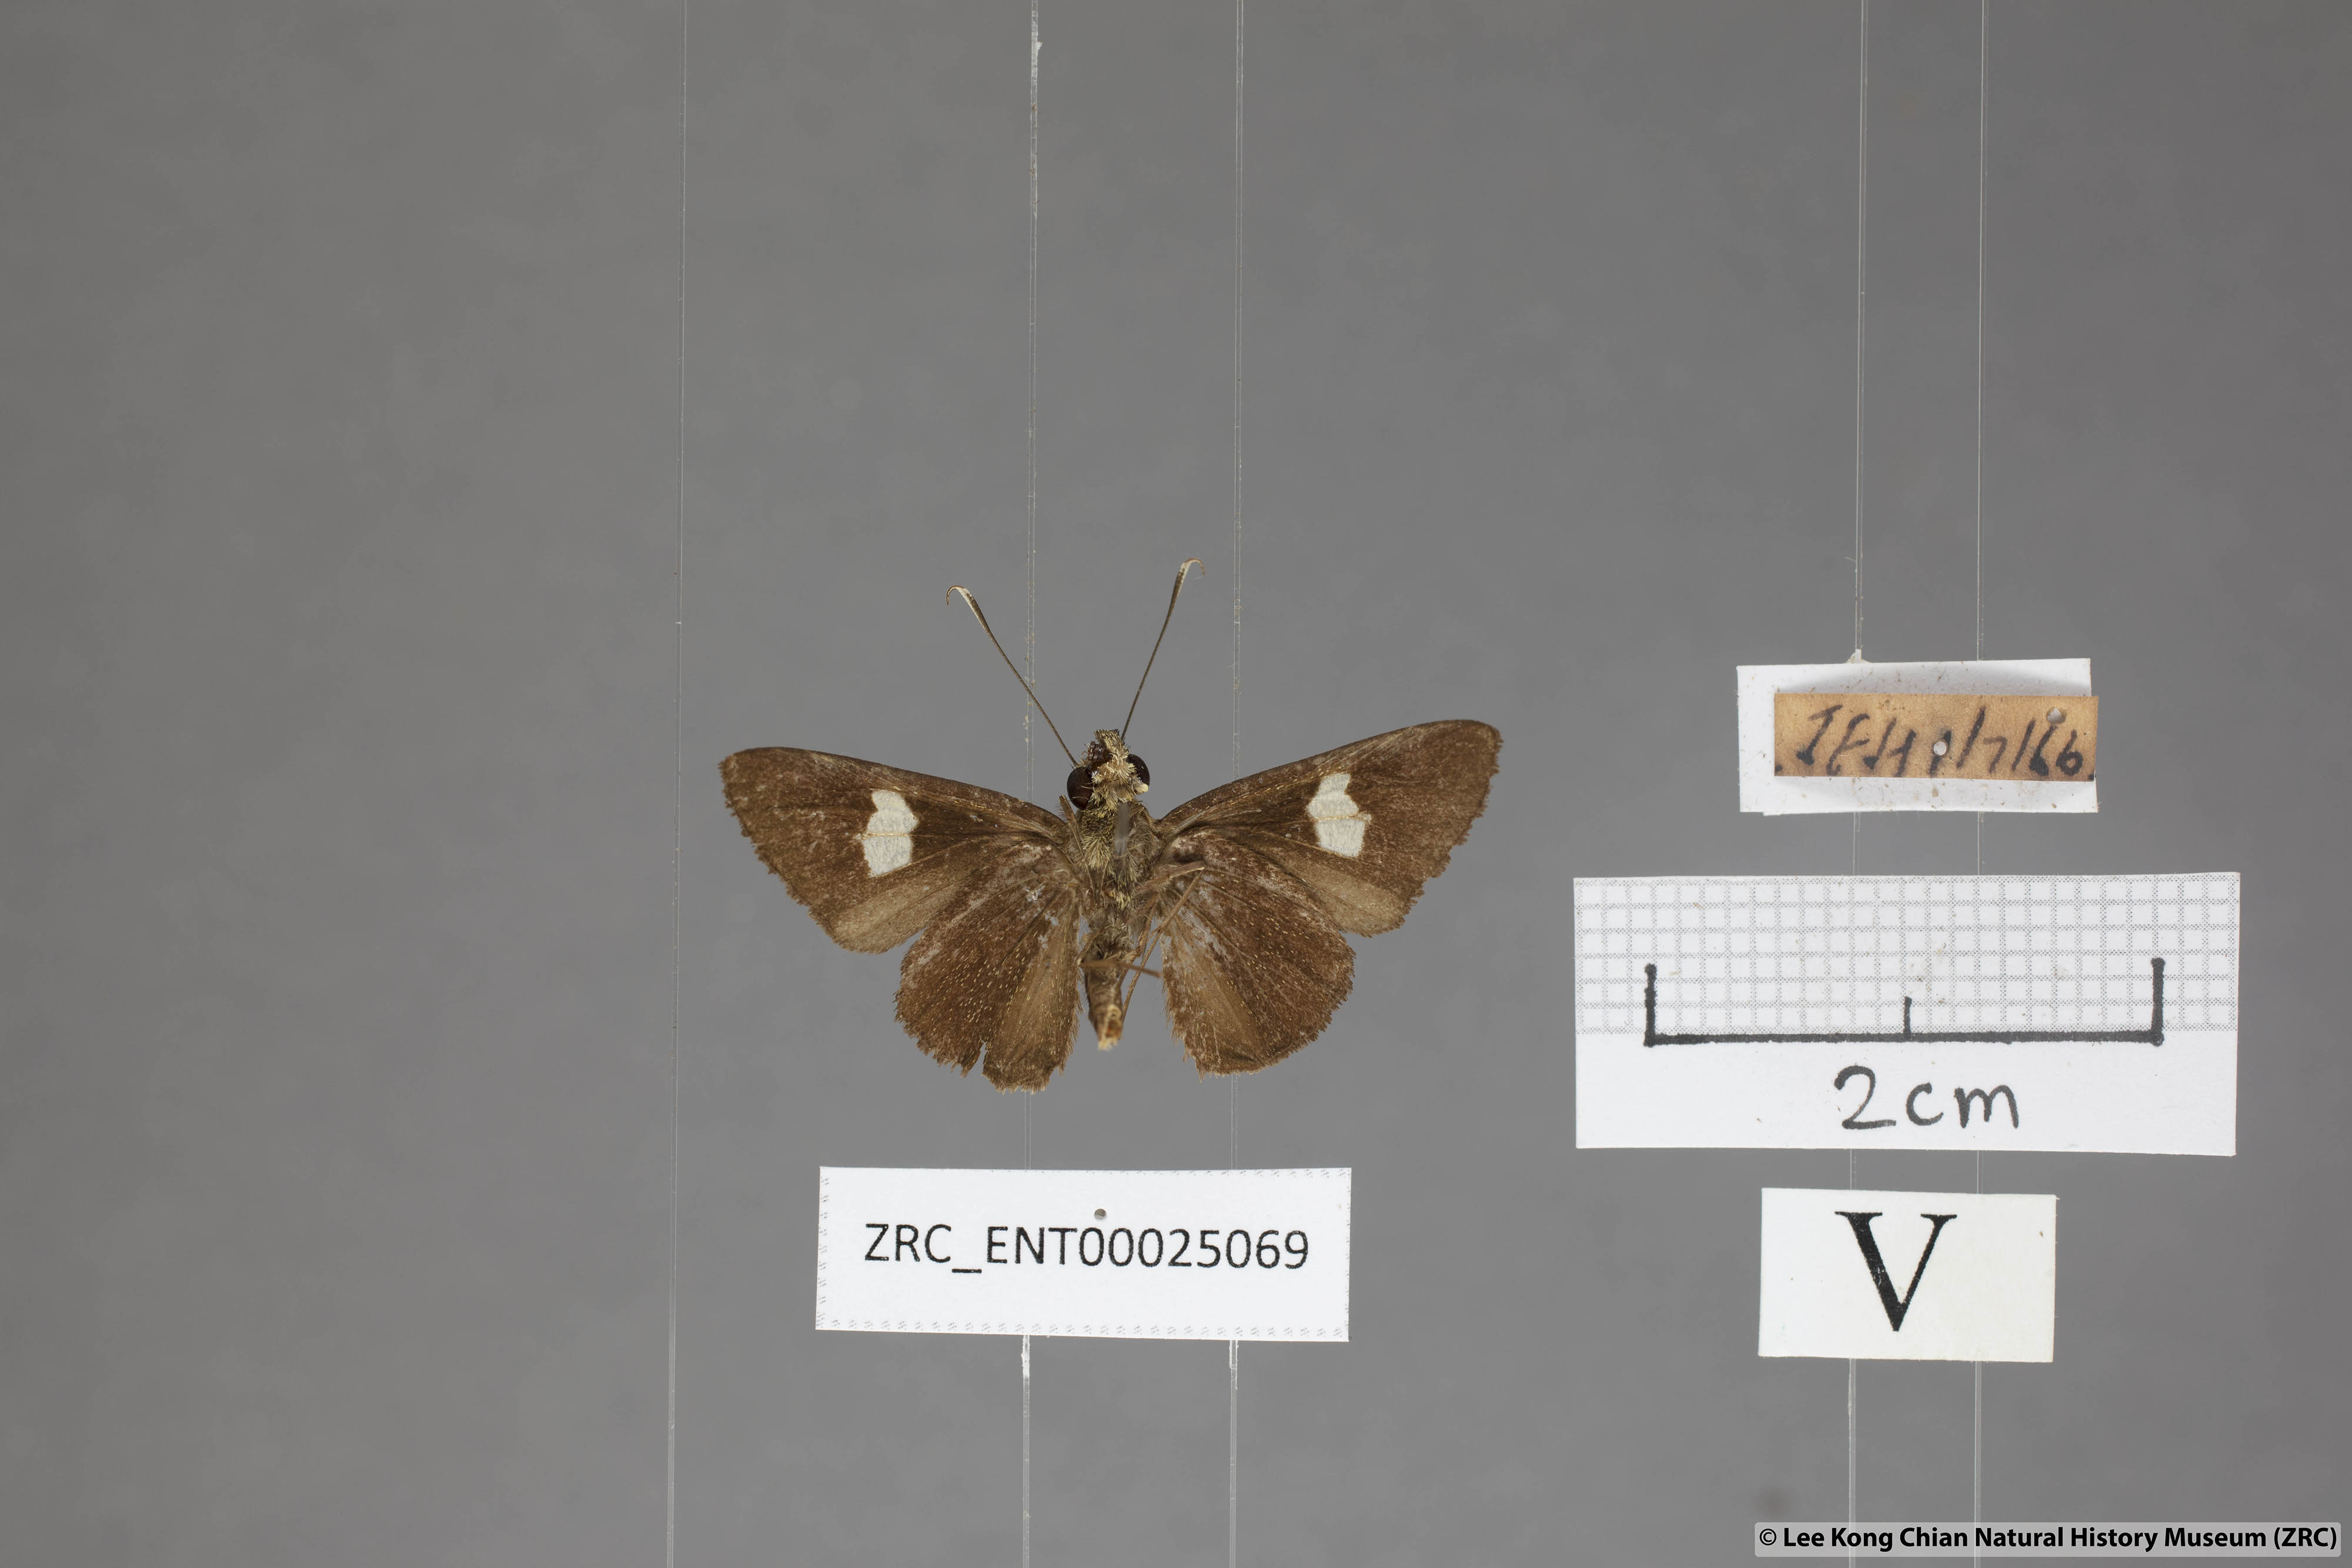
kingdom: Animalia
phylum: Arthropoda
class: Insecta
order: Lepidoptera
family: Hesperiidae
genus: Oerane
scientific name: Oerane microthyrus
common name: White club flitter
